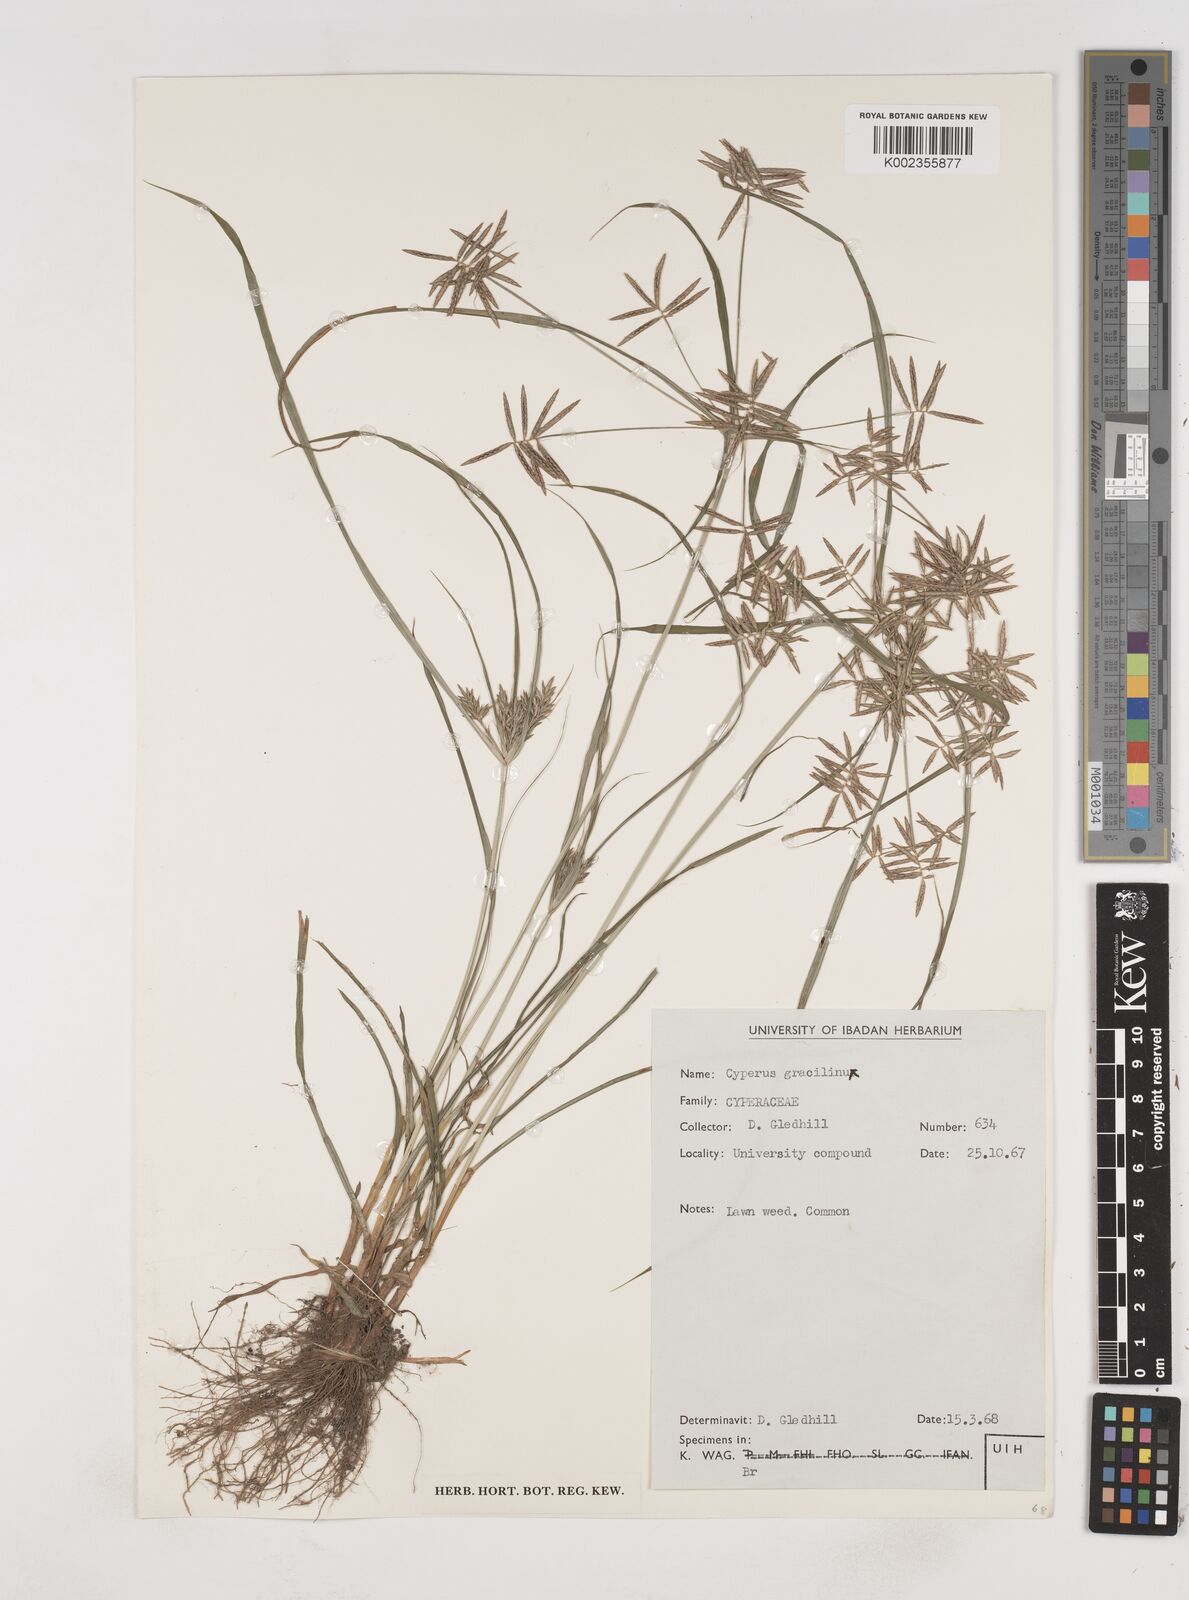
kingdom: Plantae
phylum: Tracheophyta
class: Liliopsida
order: Poales
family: Cyperaceae
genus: Cyperus
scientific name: Cyperus sphacelatus
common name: Roadside flatsedge
